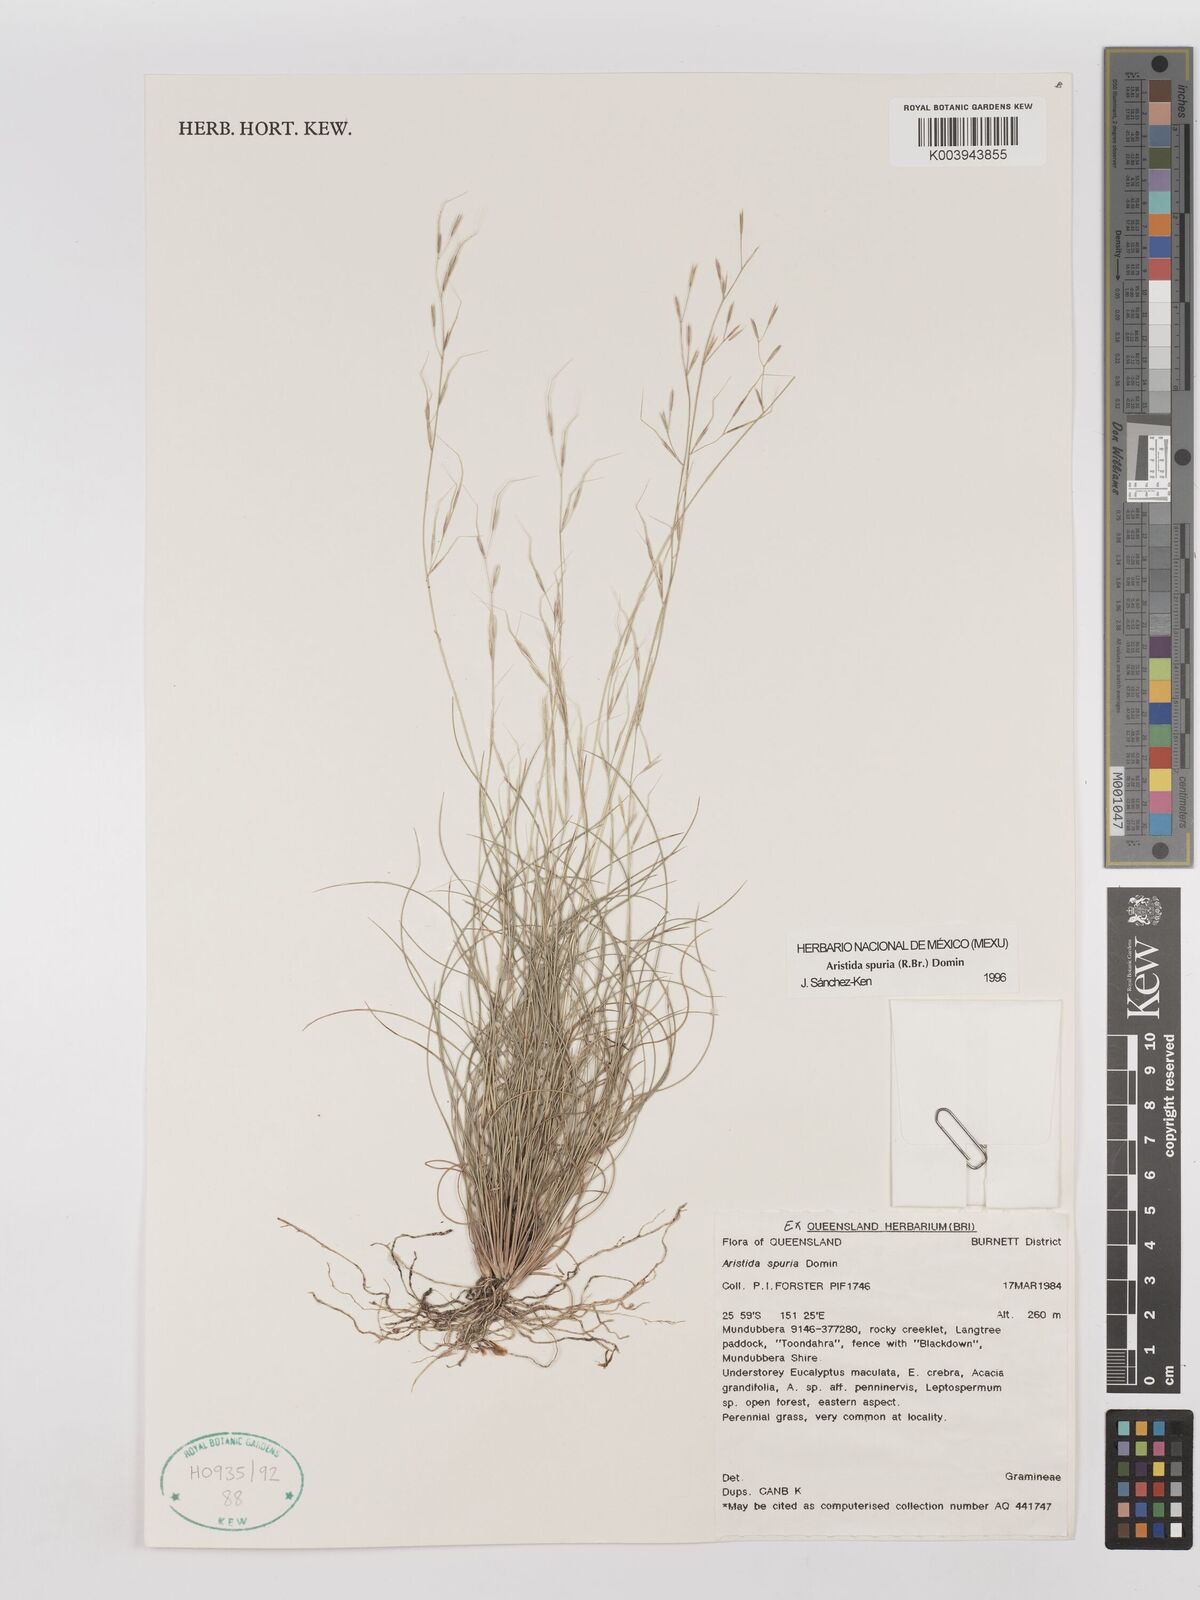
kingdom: Plantae
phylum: Tracheophyta
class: Liliopsida
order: Poales
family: Poaceae
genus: Aristida
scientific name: Aristida spuria
